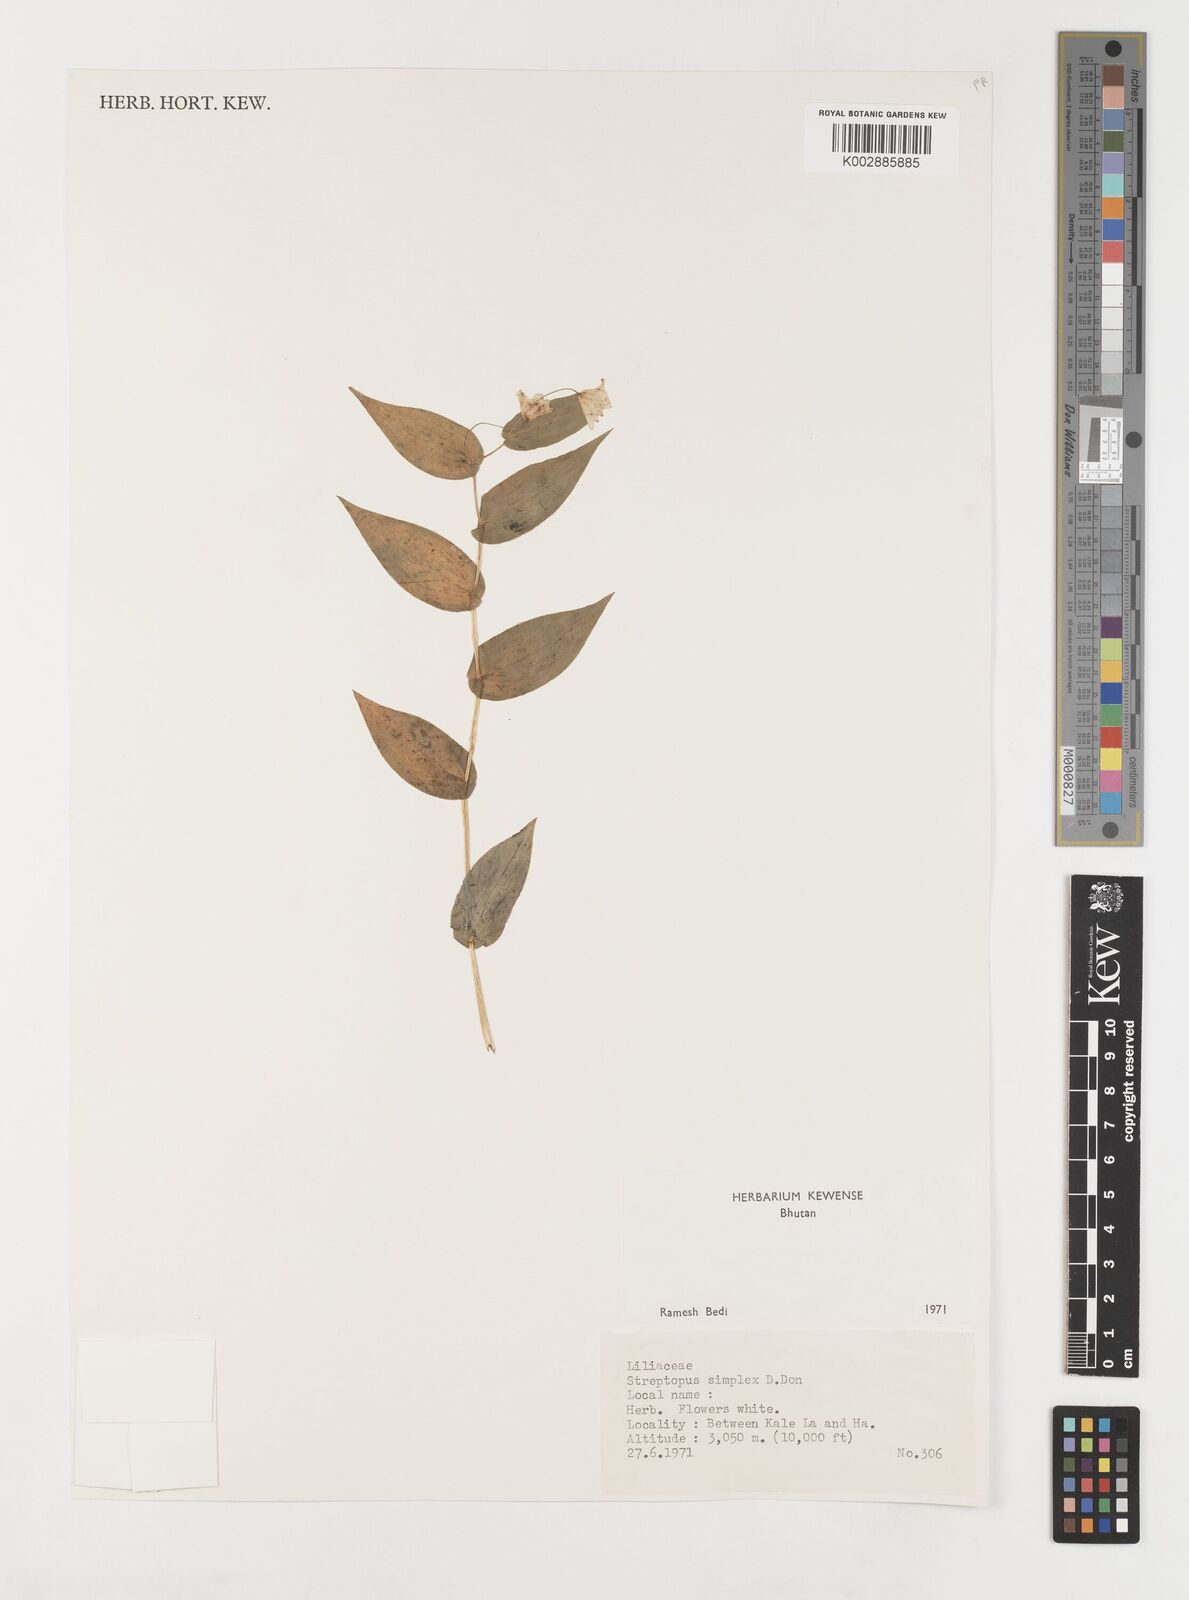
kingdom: Plantae
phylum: Tracheophyta
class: Liliopsida
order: Liliales
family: Liliaceae
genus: Streptopus
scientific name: Streptopus simplex
